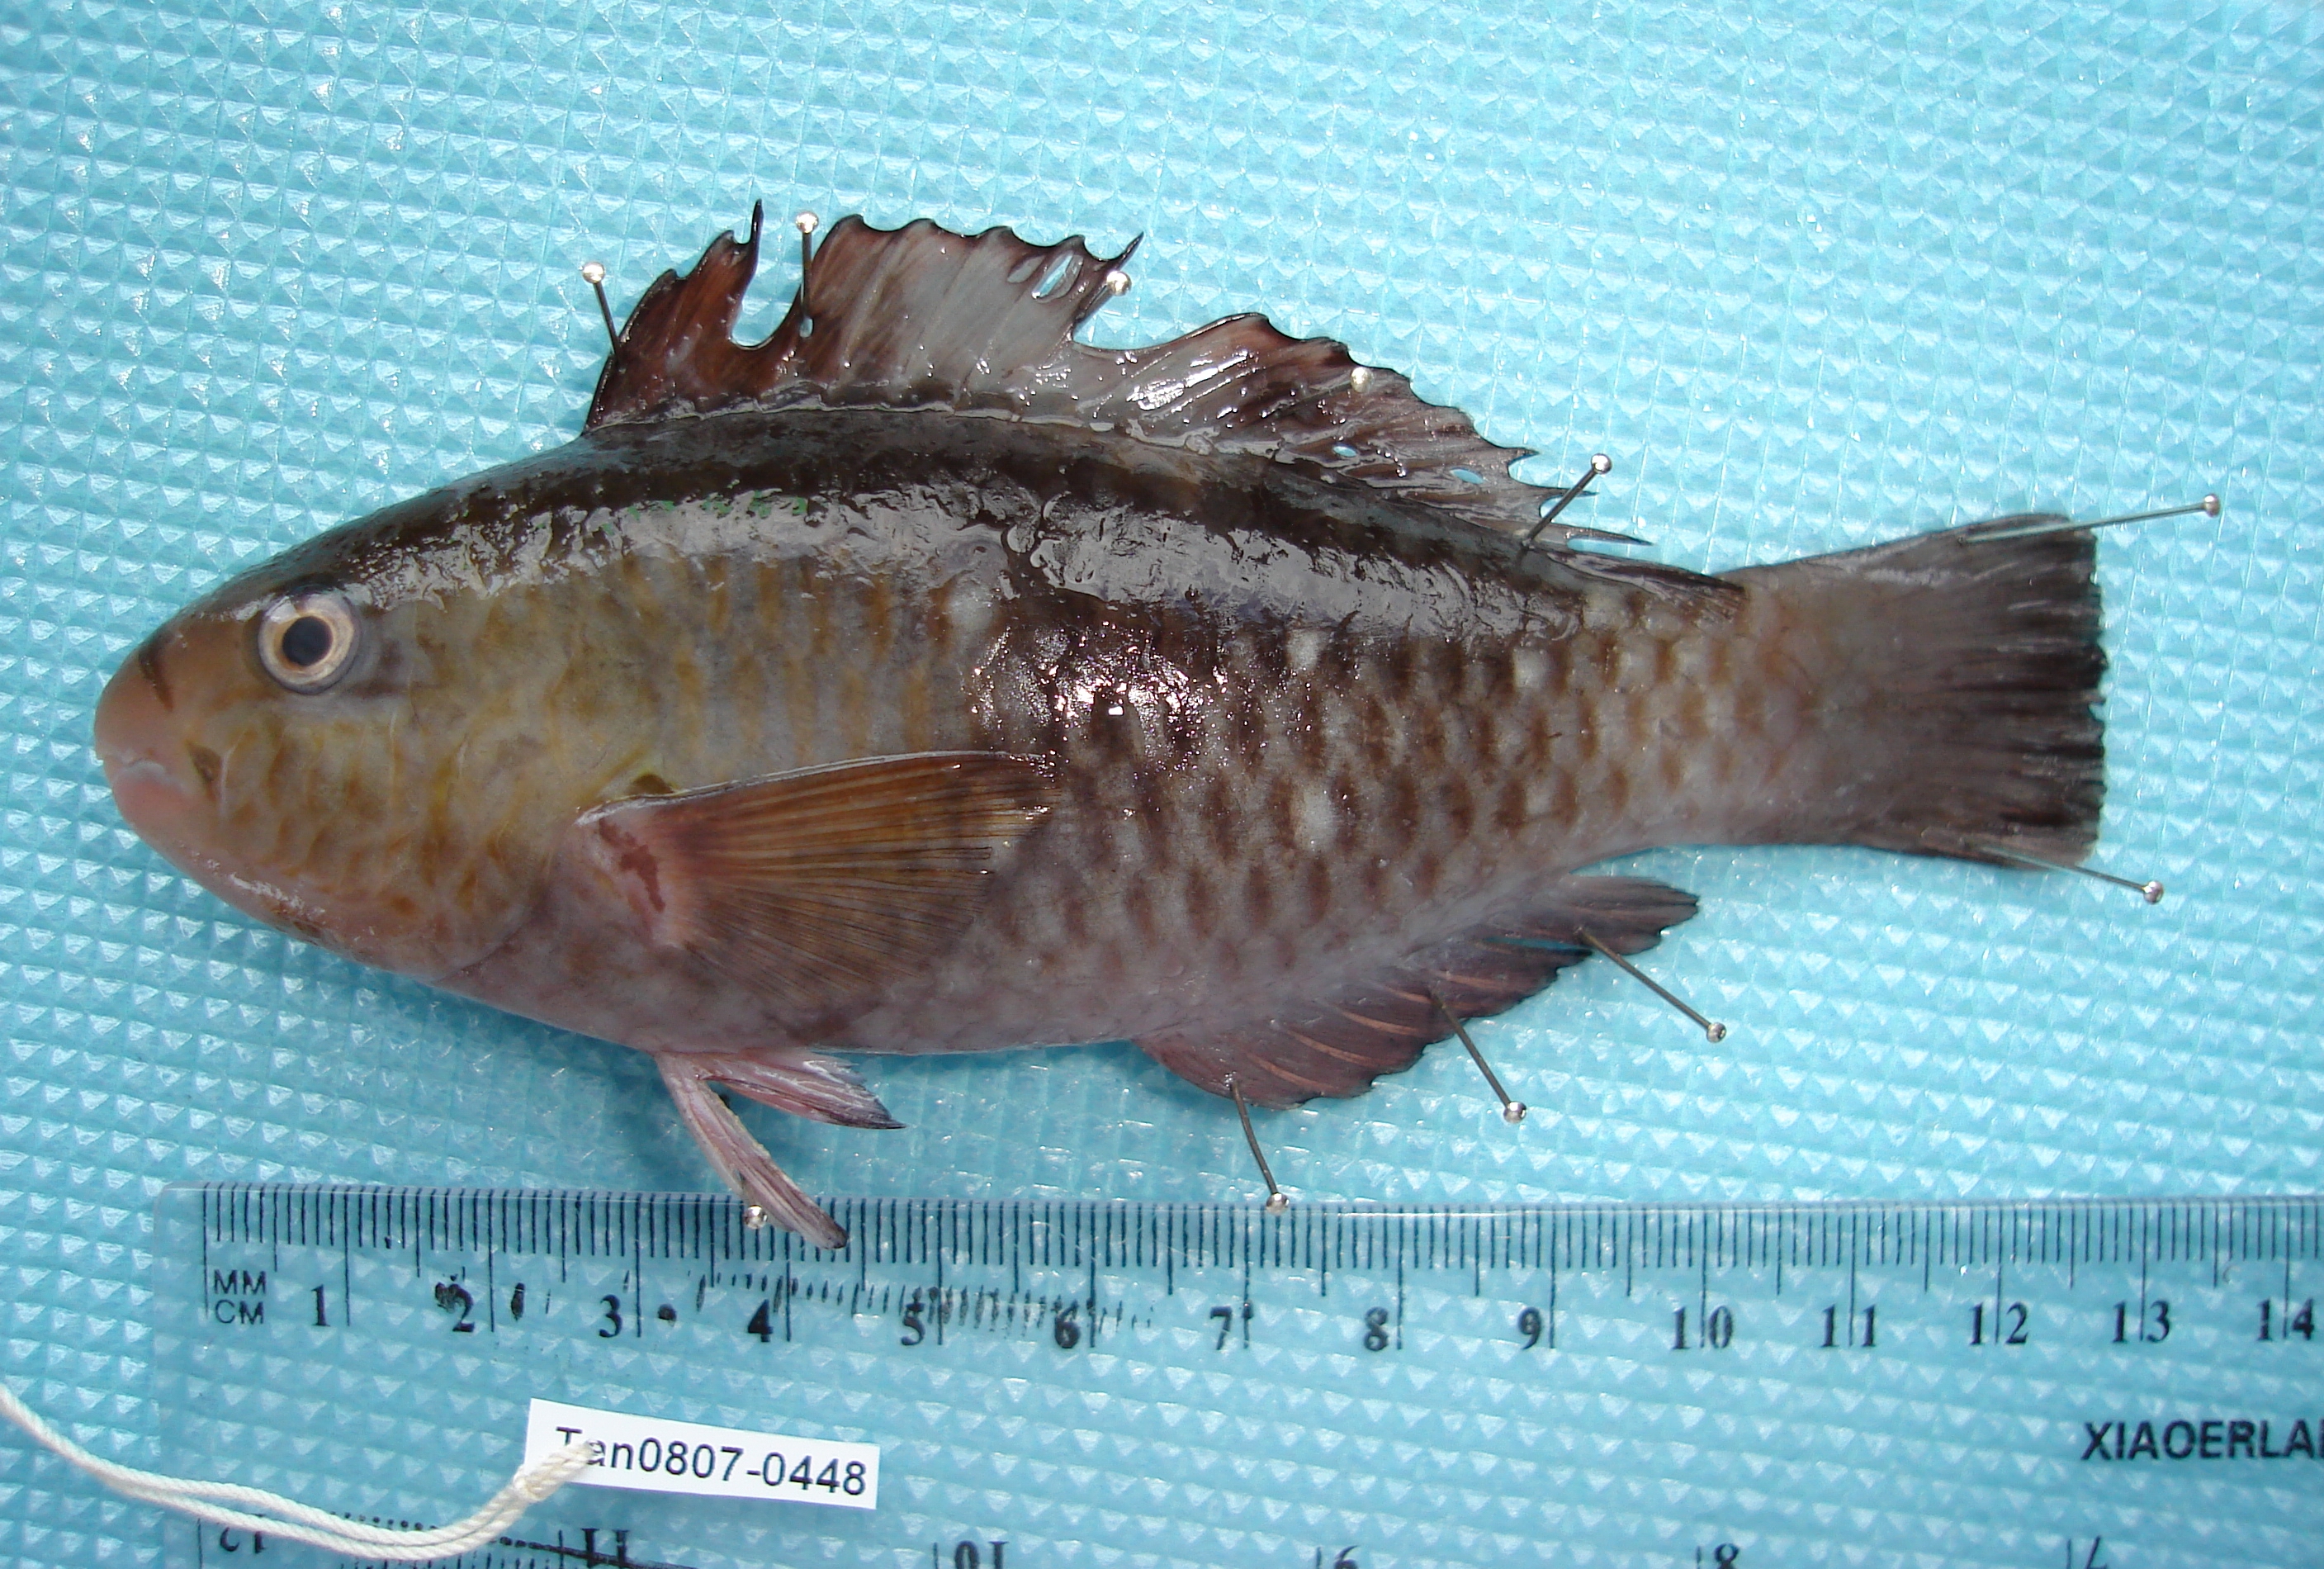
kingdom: Animalia
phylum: Chordata
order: Perciformes
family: Scaridae
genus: Chlorurus
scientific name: Chlorurus sordidus
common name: Bullethead parrotfish
